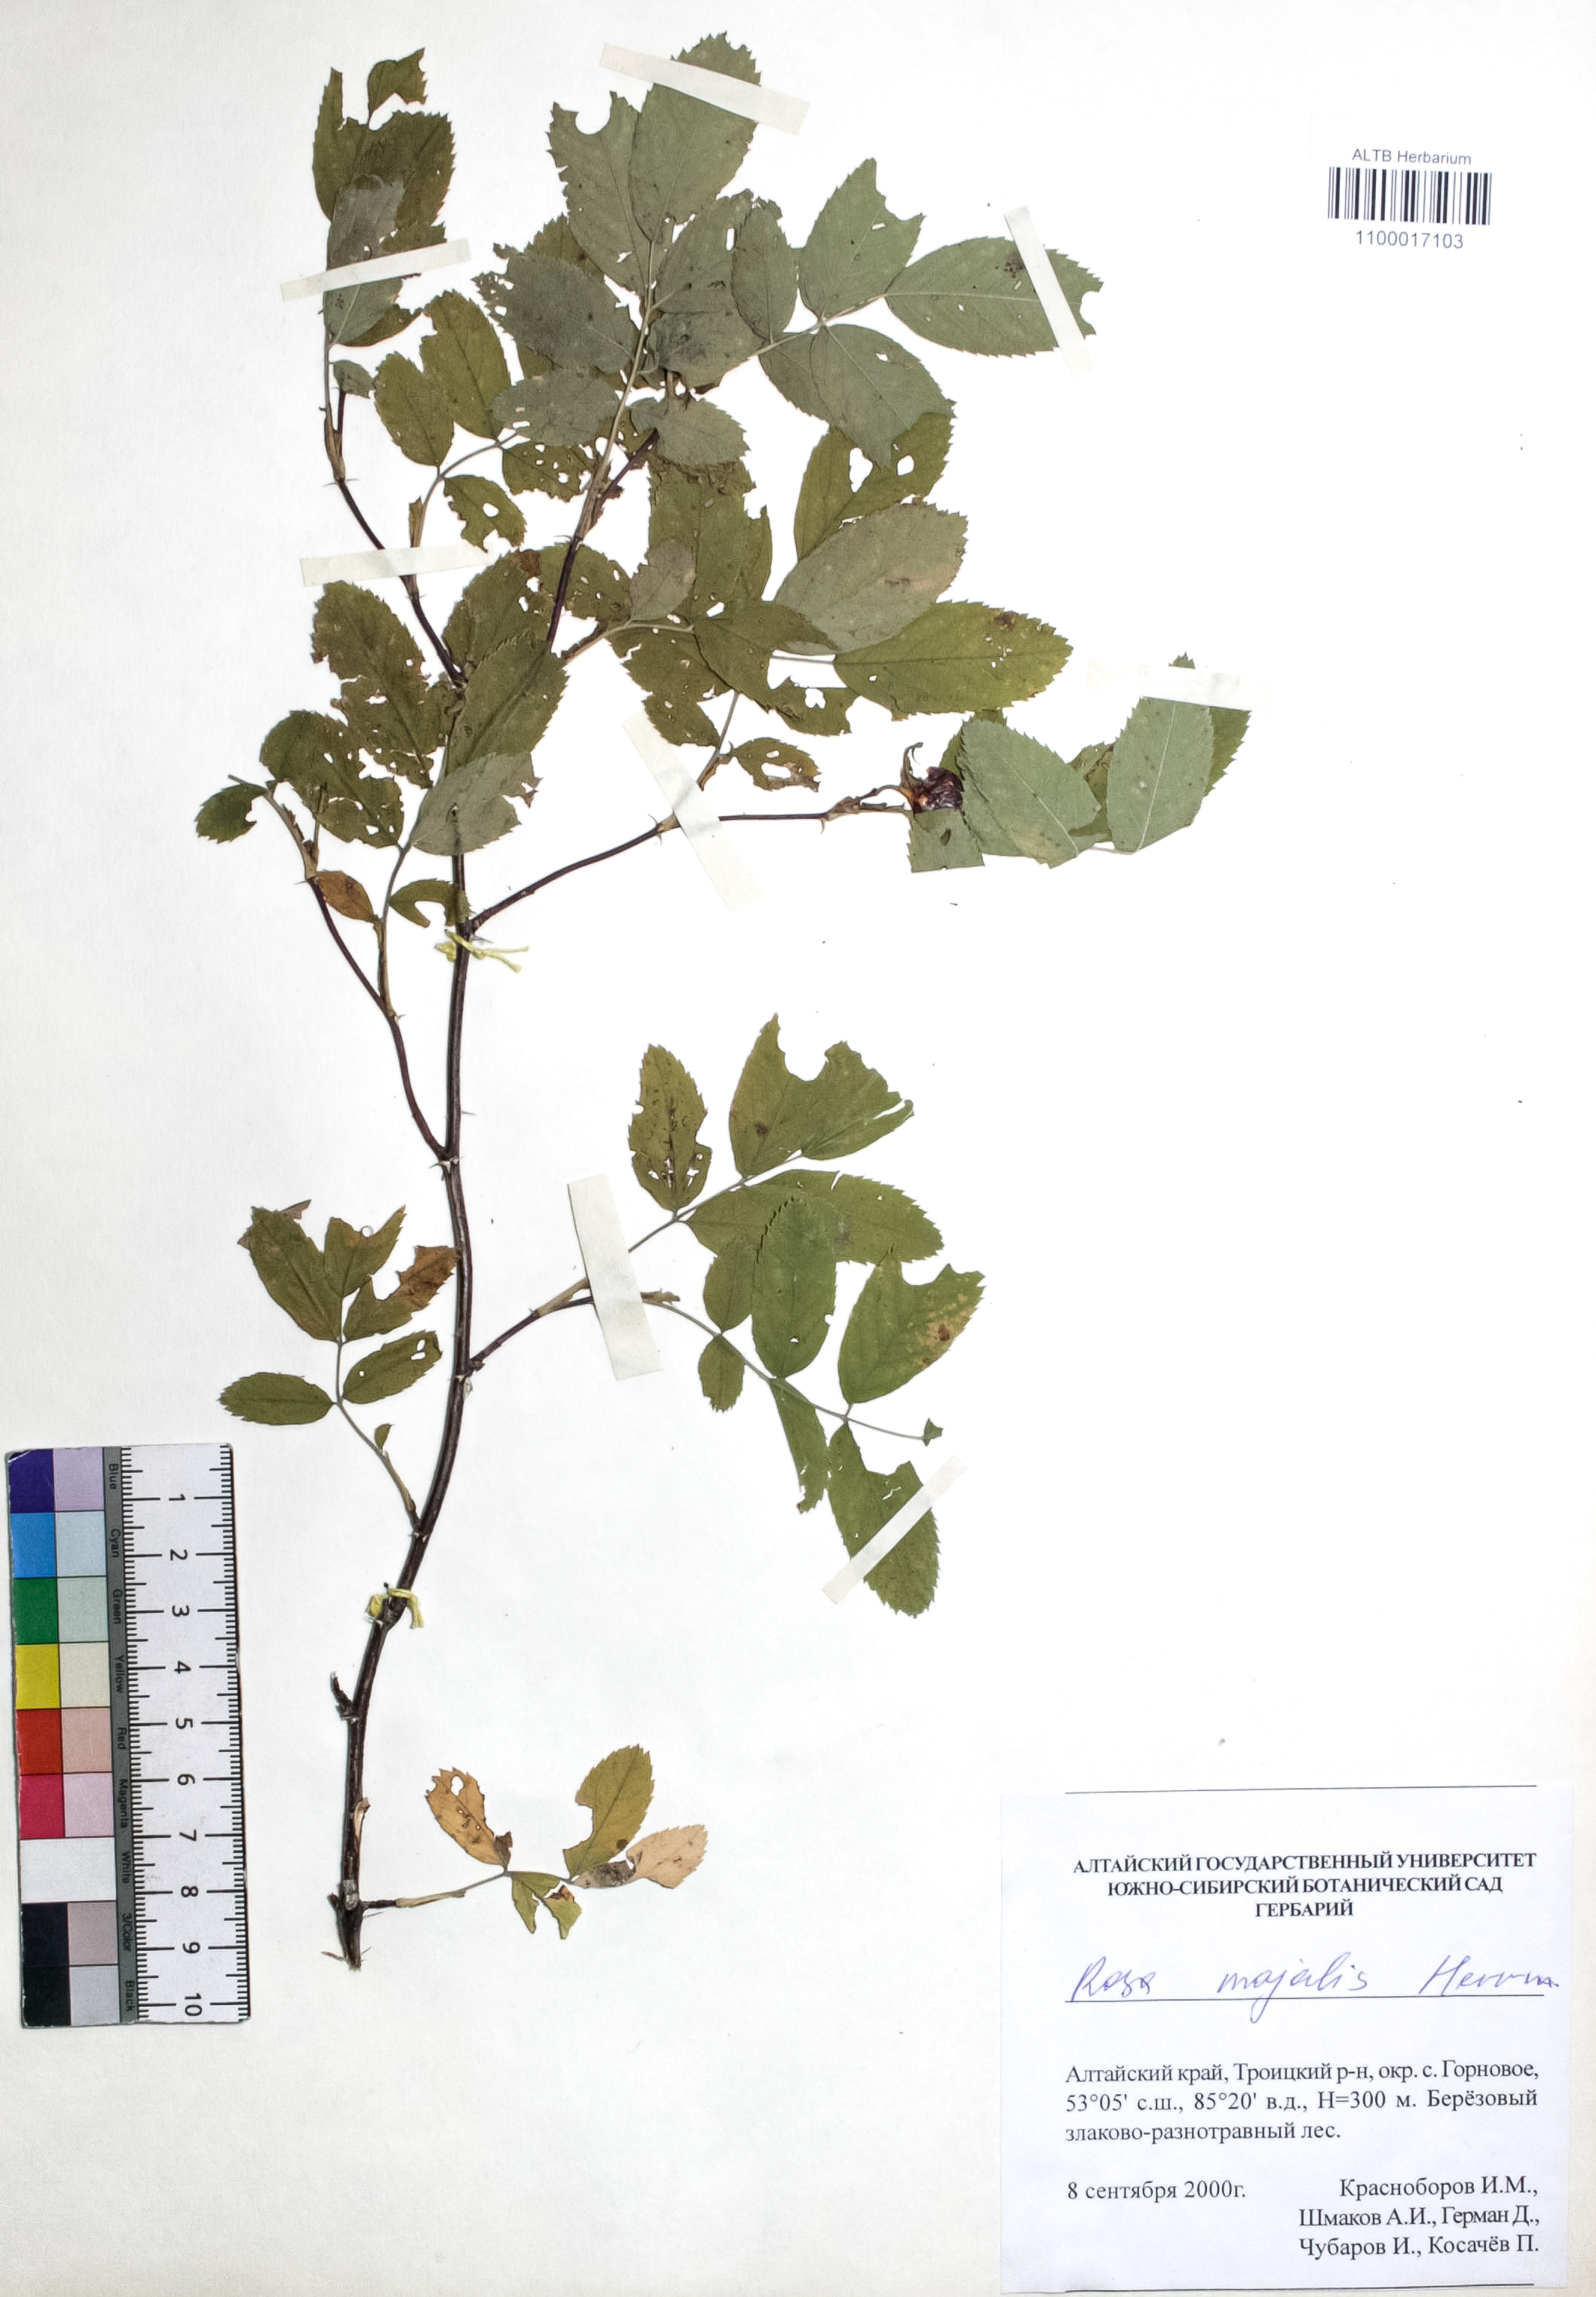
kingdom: Plantae
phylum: Tracheophyta
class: Magnoliopsida
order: Rosales
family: Rosaceae
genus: Rosa
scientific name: Rosa majalis
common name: Cinnamon rose
